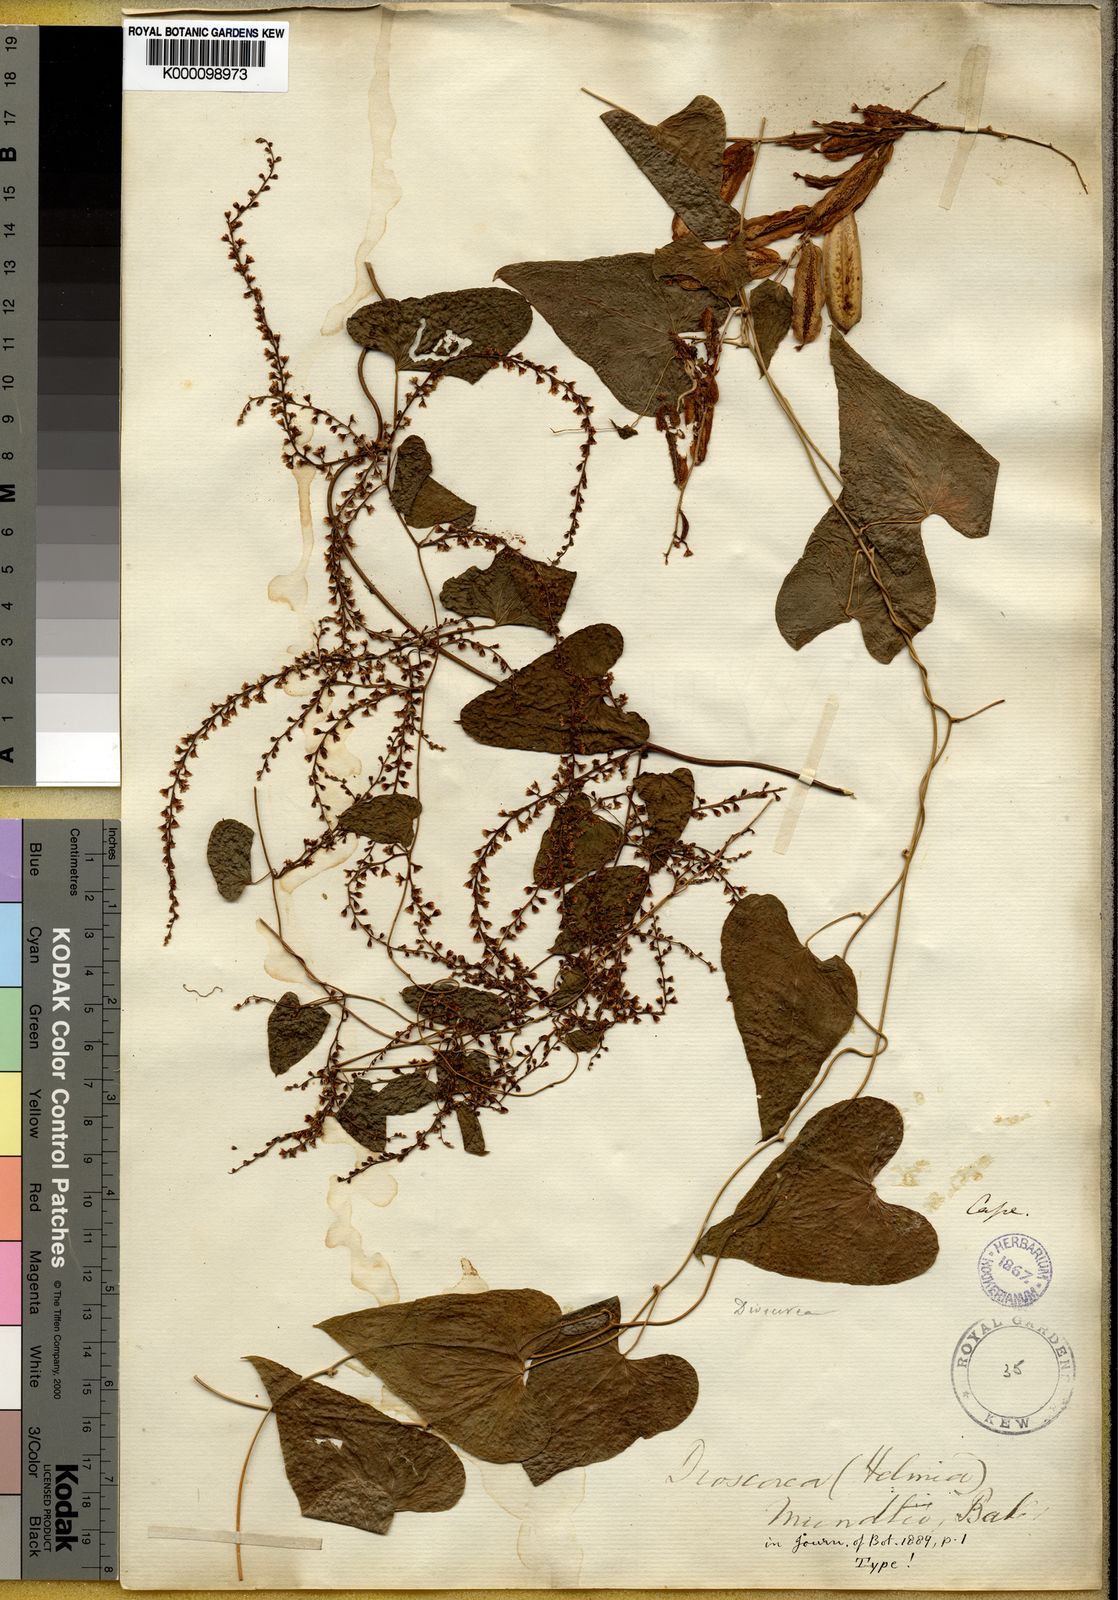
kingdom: Plantae
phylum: Tracheophyta
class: Liliopsida
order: Dioscoreales
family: Dioscoreaceae
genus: Dioscorea
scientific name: Dioscorea
